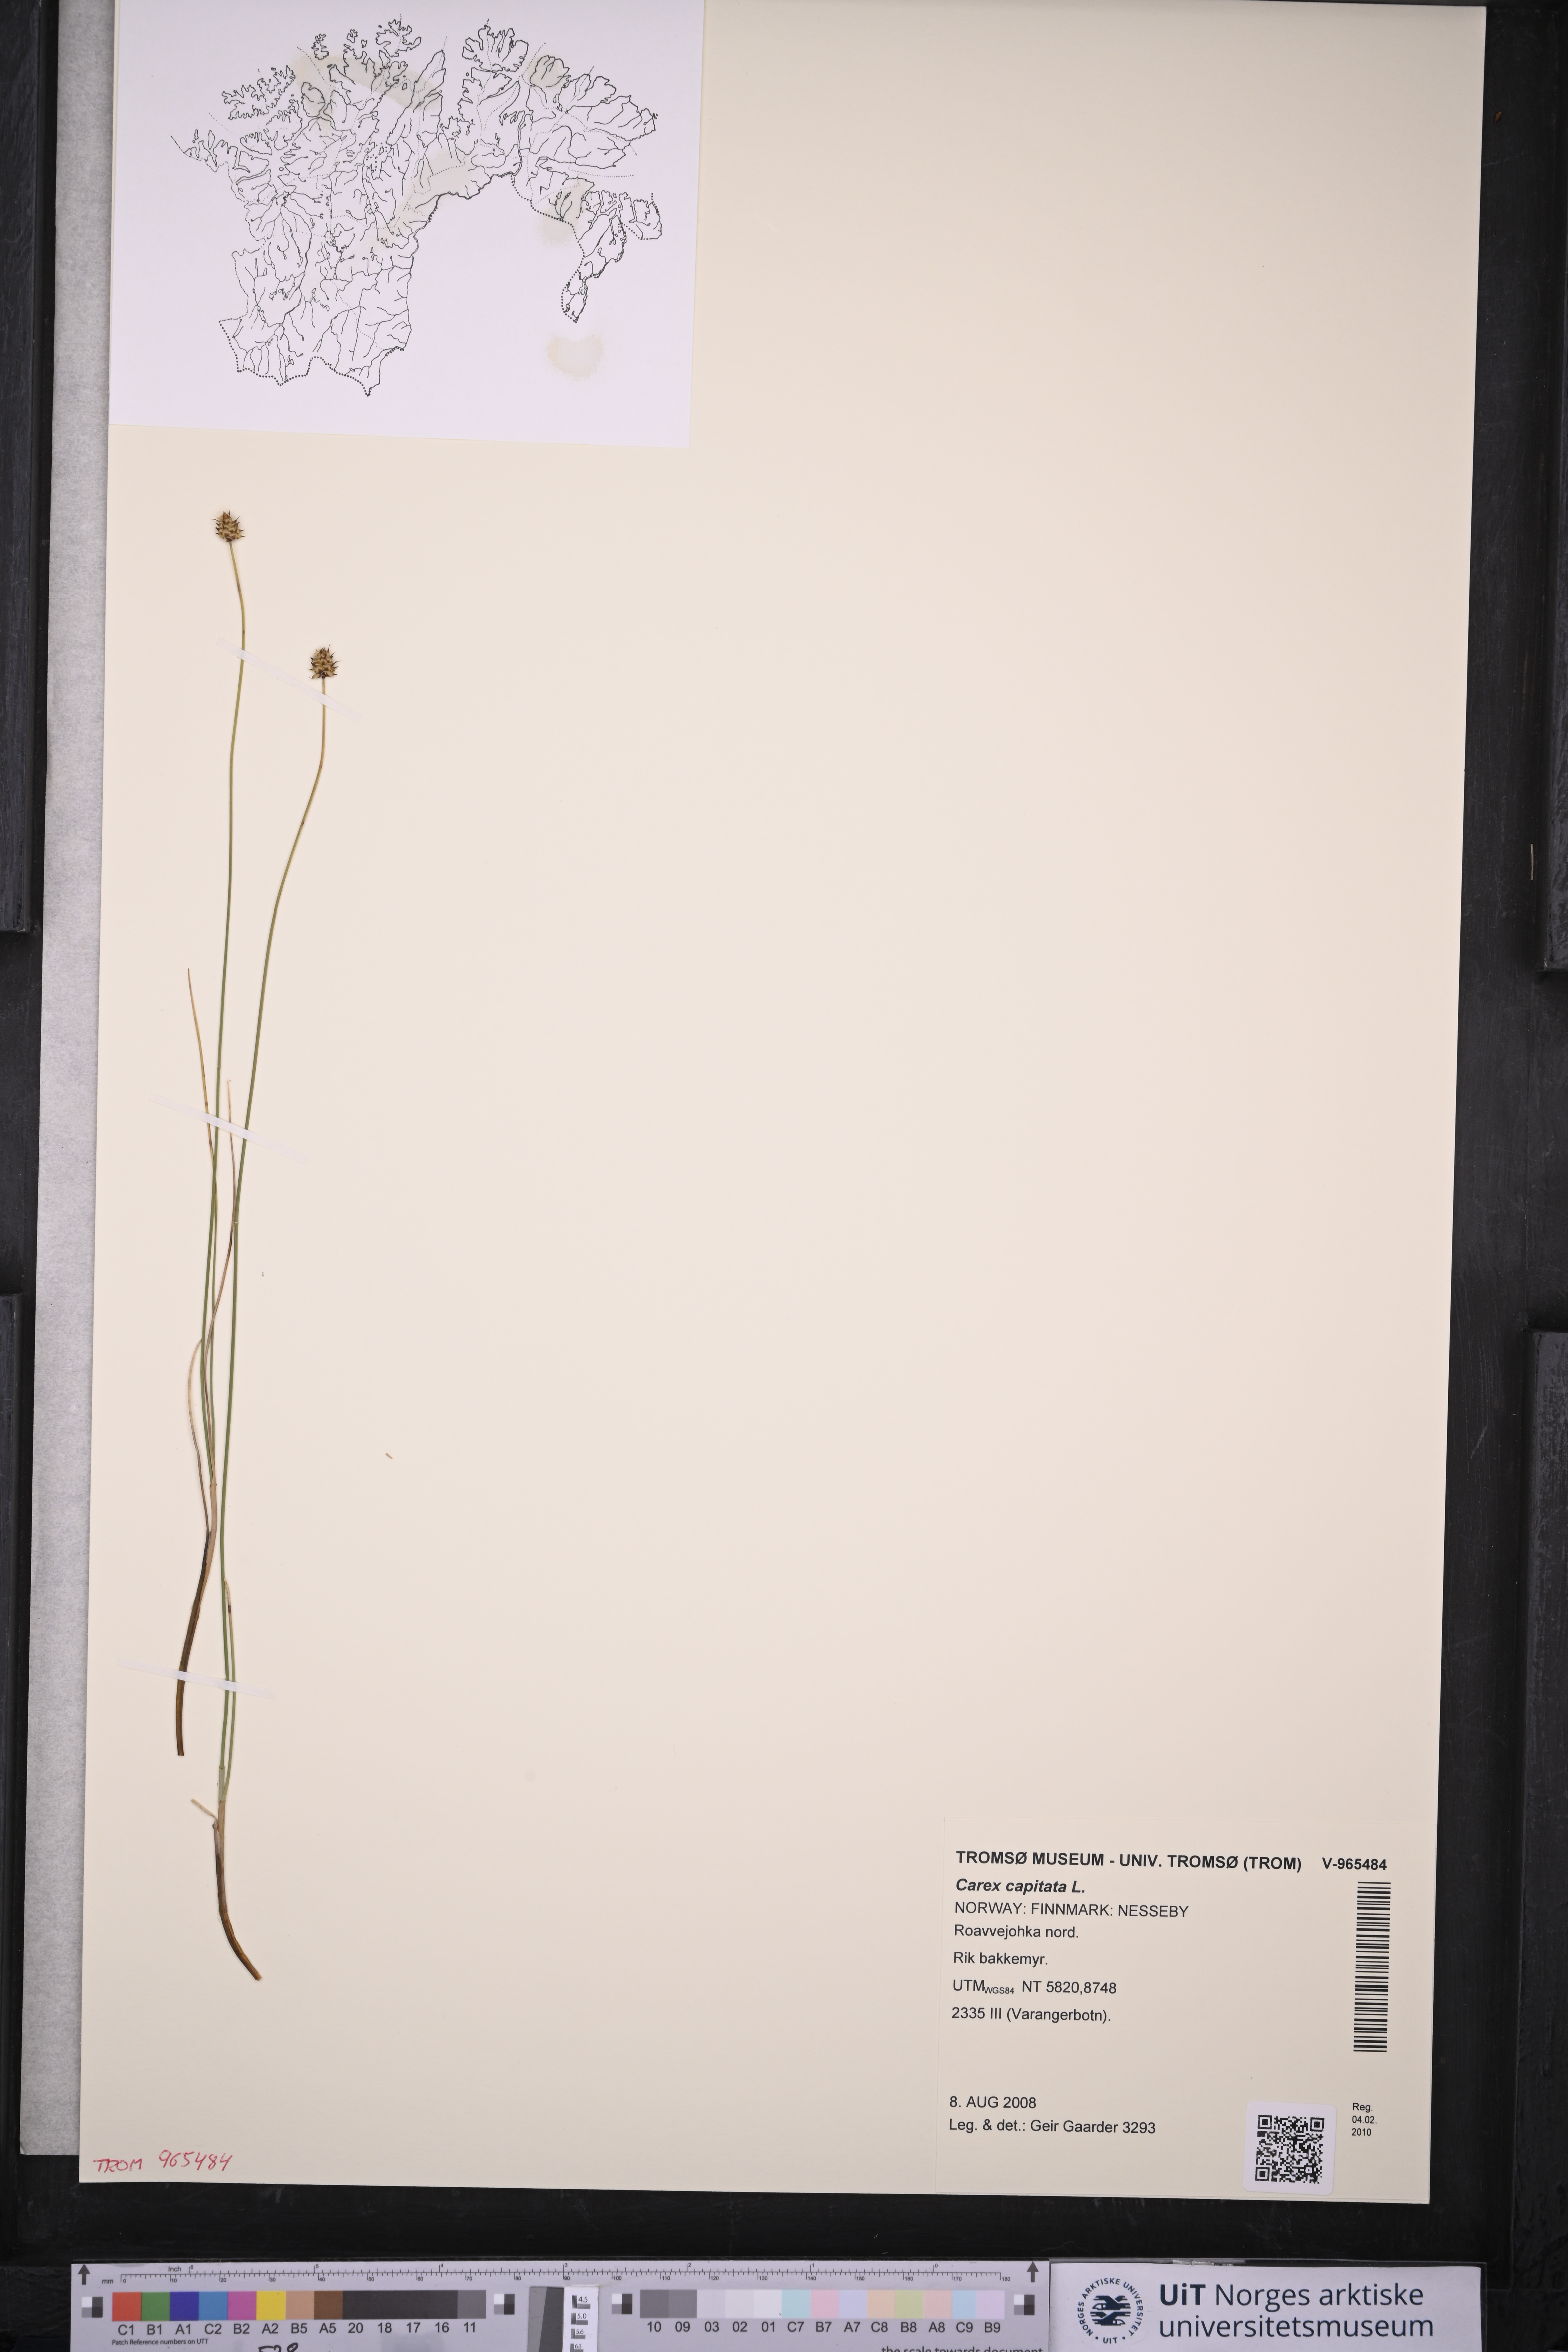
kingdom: Plantae
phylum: Tracheophyta
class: Liliopsida
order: Poales
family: Cyperaceae
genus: Carex
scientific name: Carex capitata
